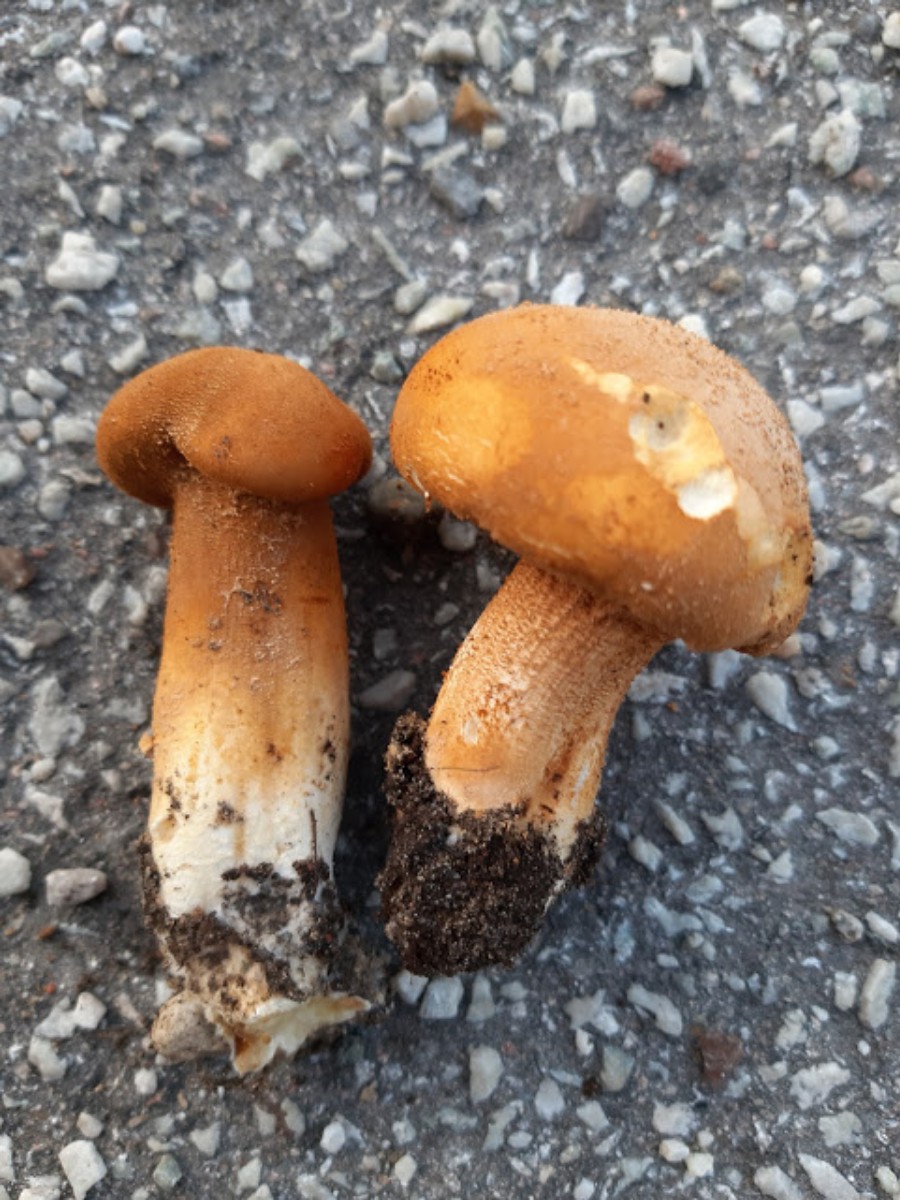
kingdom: Fungi
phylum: Basidiomycota
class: Agaricomycetes
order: Agaricales
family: Tricholomataceae
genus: Phaeolepiota
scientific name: Phaeolepiota aurea
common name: gyldenhat
